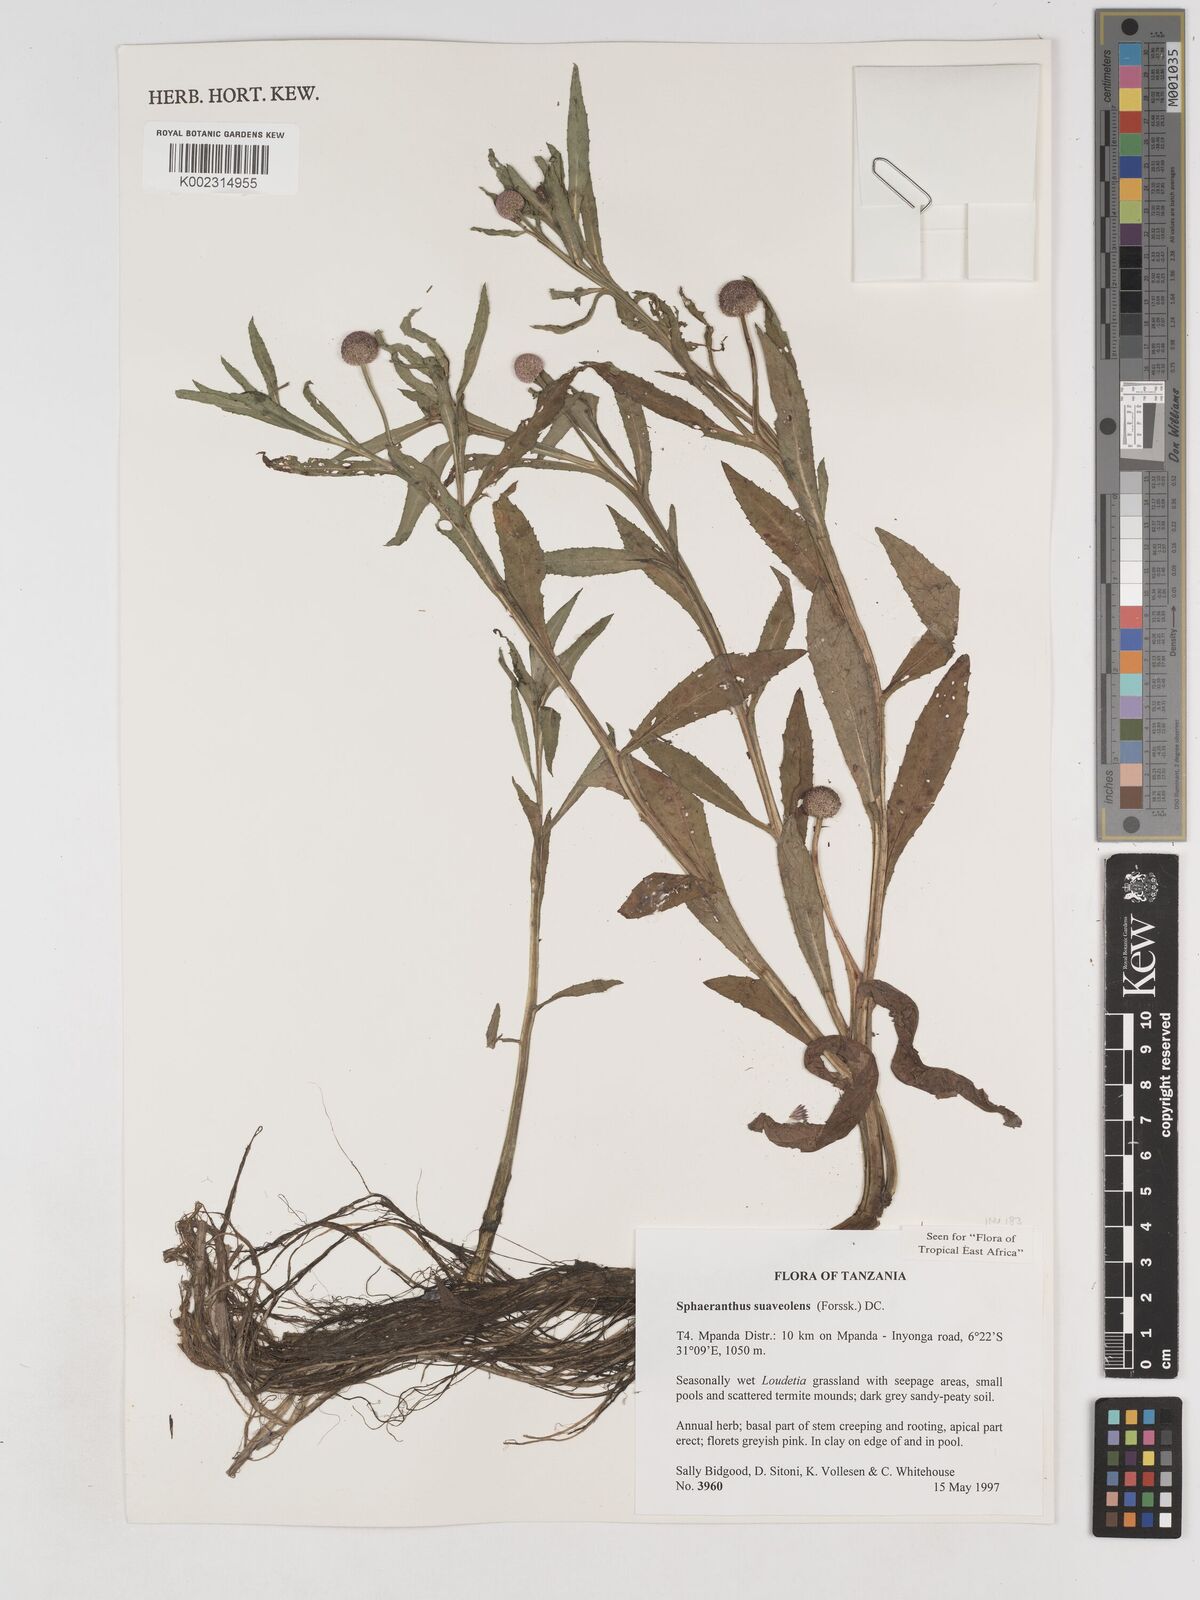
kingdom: Plantae
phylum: Tracheophyta
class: Magnoliopsida
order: Asterales
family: Asteraceae
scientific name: Asteraceae
